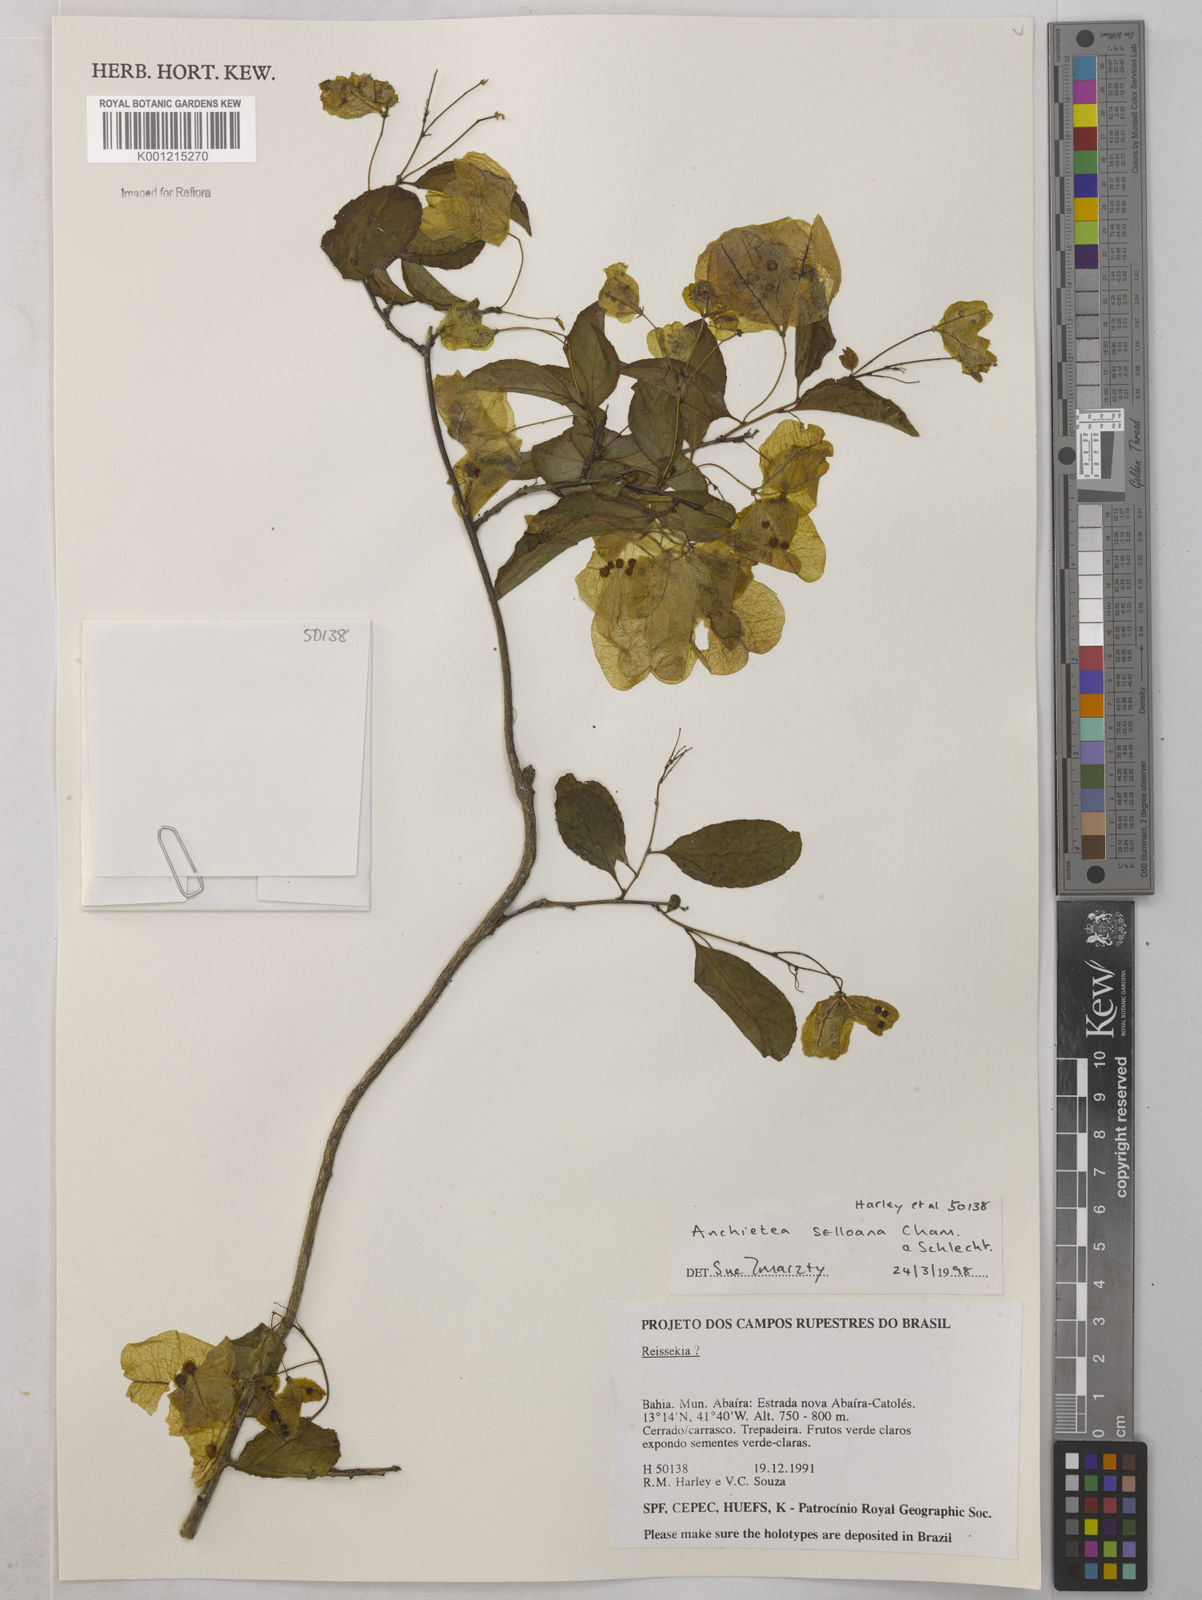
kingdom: Plantae
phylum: Tracheophyta
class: Magnoliopsida
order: Malpighiales
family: Violaceae
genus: Anchietea
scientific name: Anchietea sellowiana
